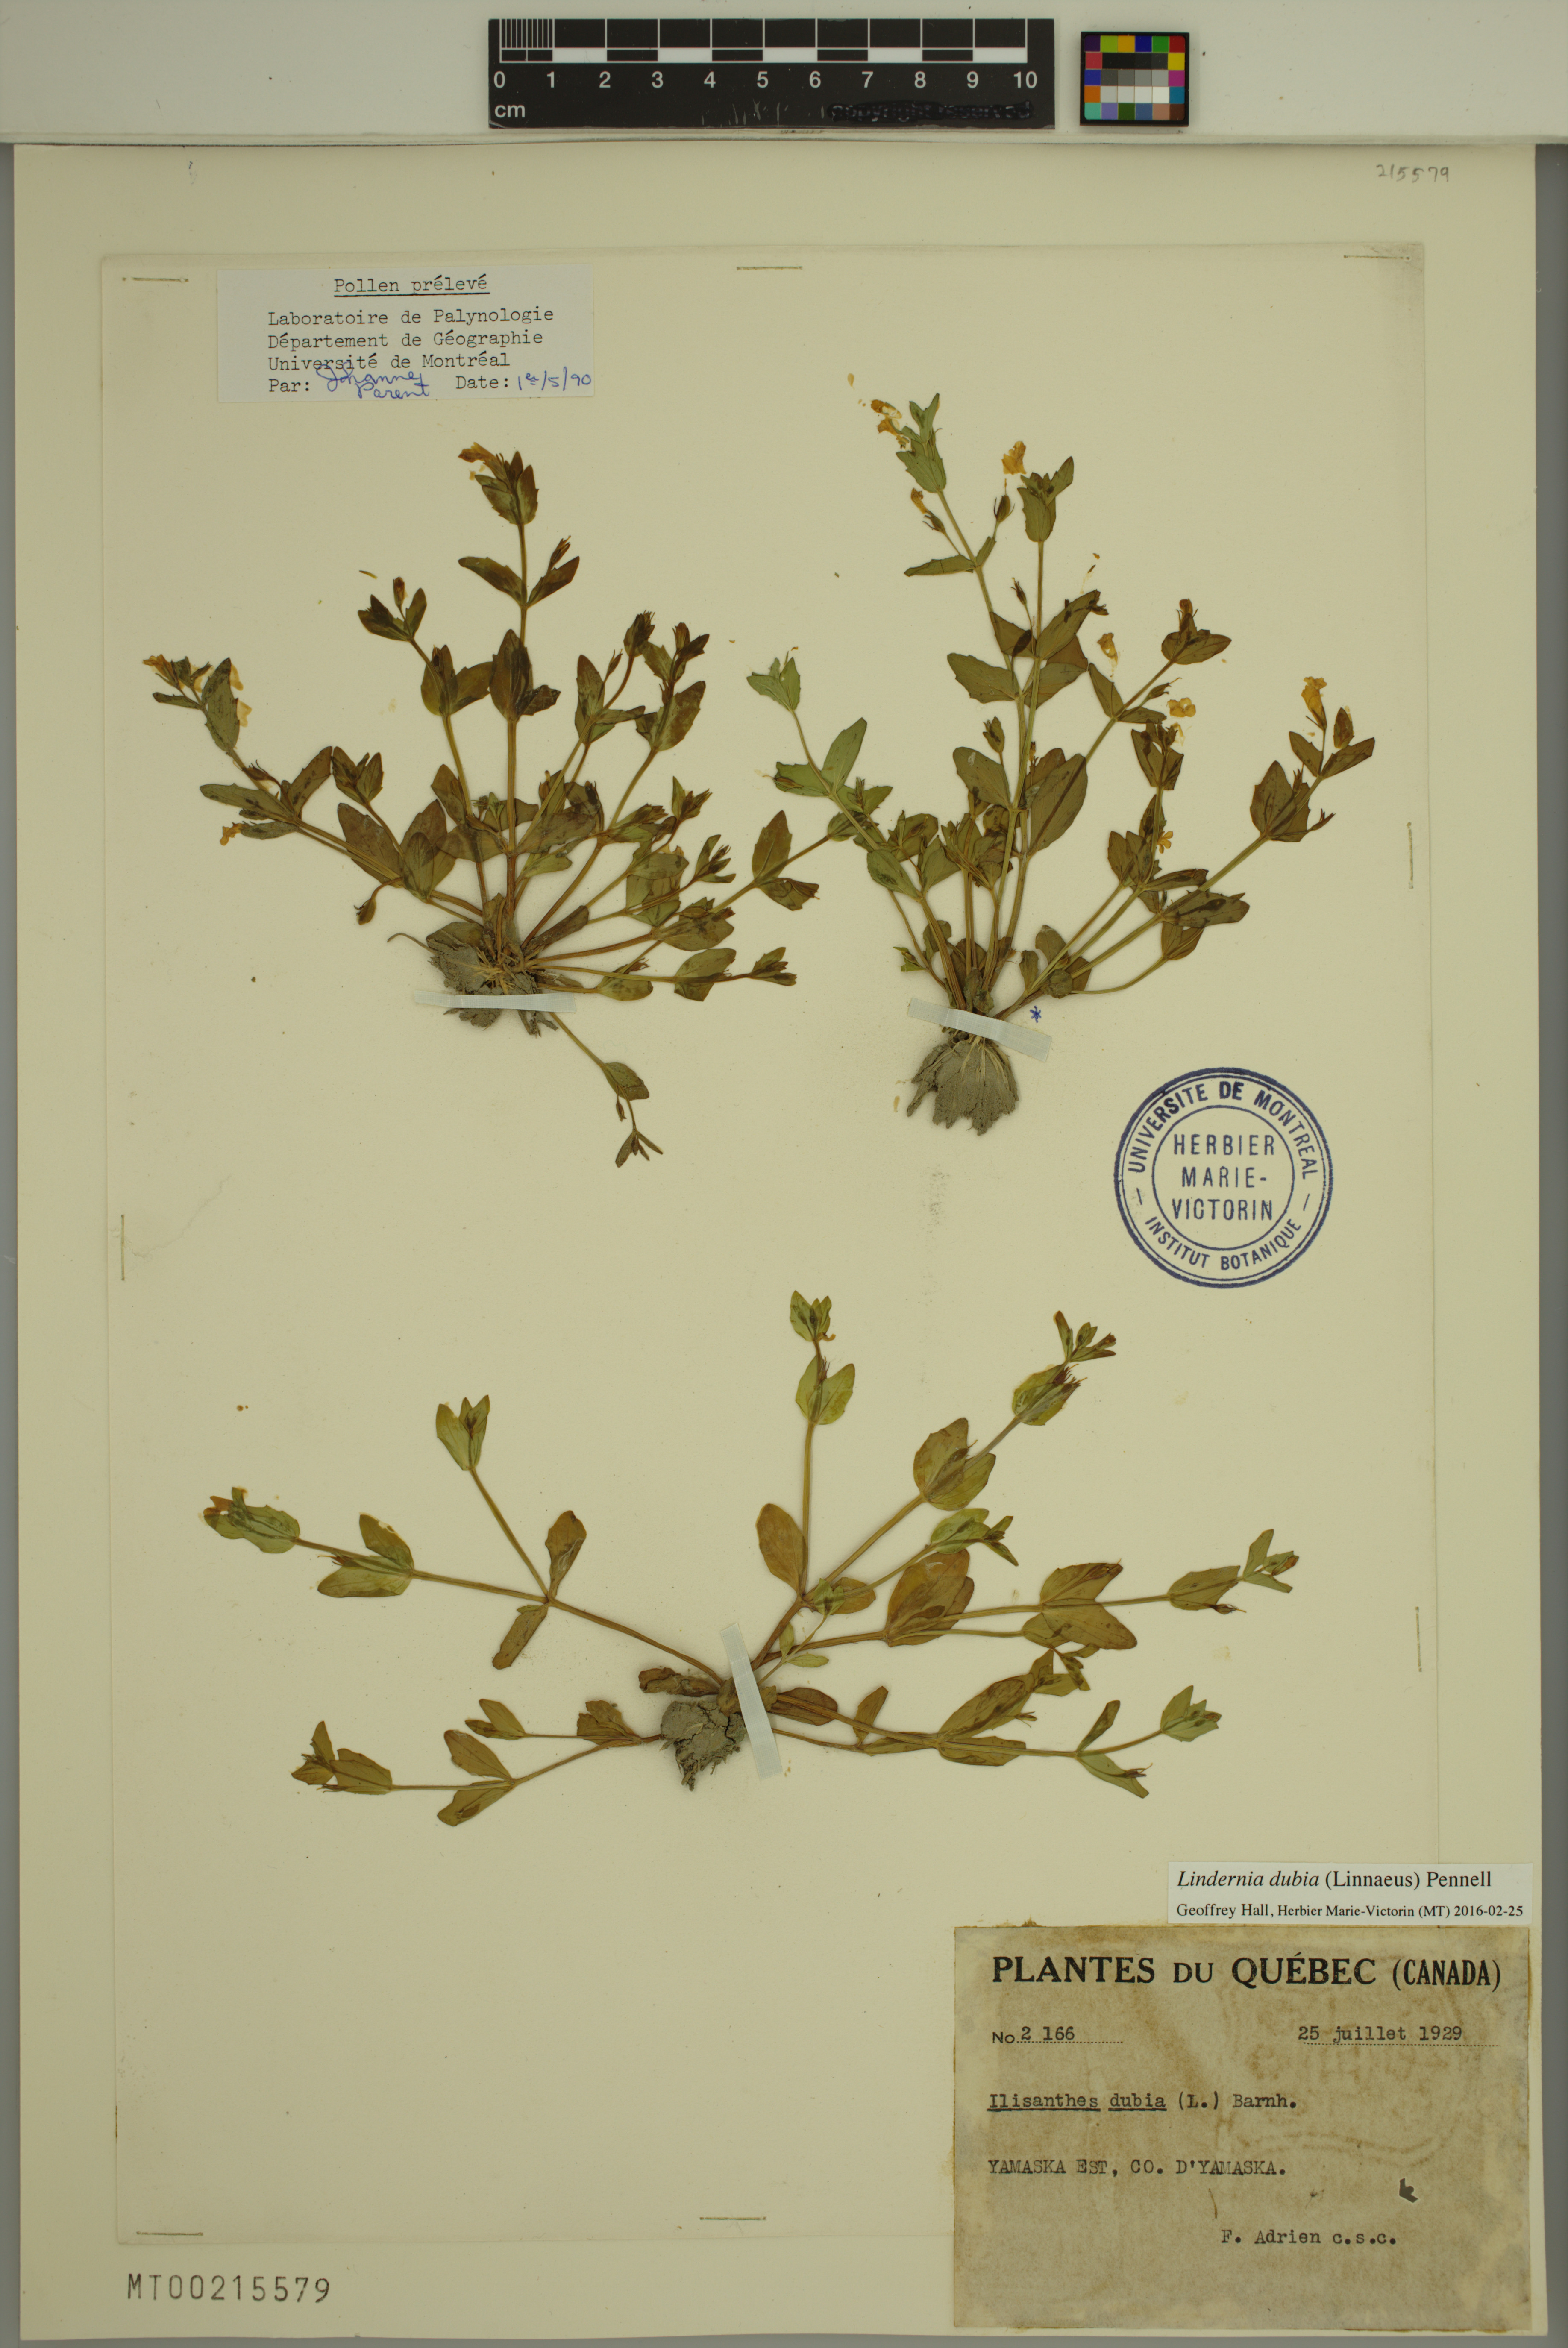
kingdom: Plantae
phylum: Tracheophyta
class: Magnoliopsida
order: Lamiales
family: Linderniaceae
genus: Lindernia
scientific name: Lindernia dubia
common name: Annual false pimpernel
